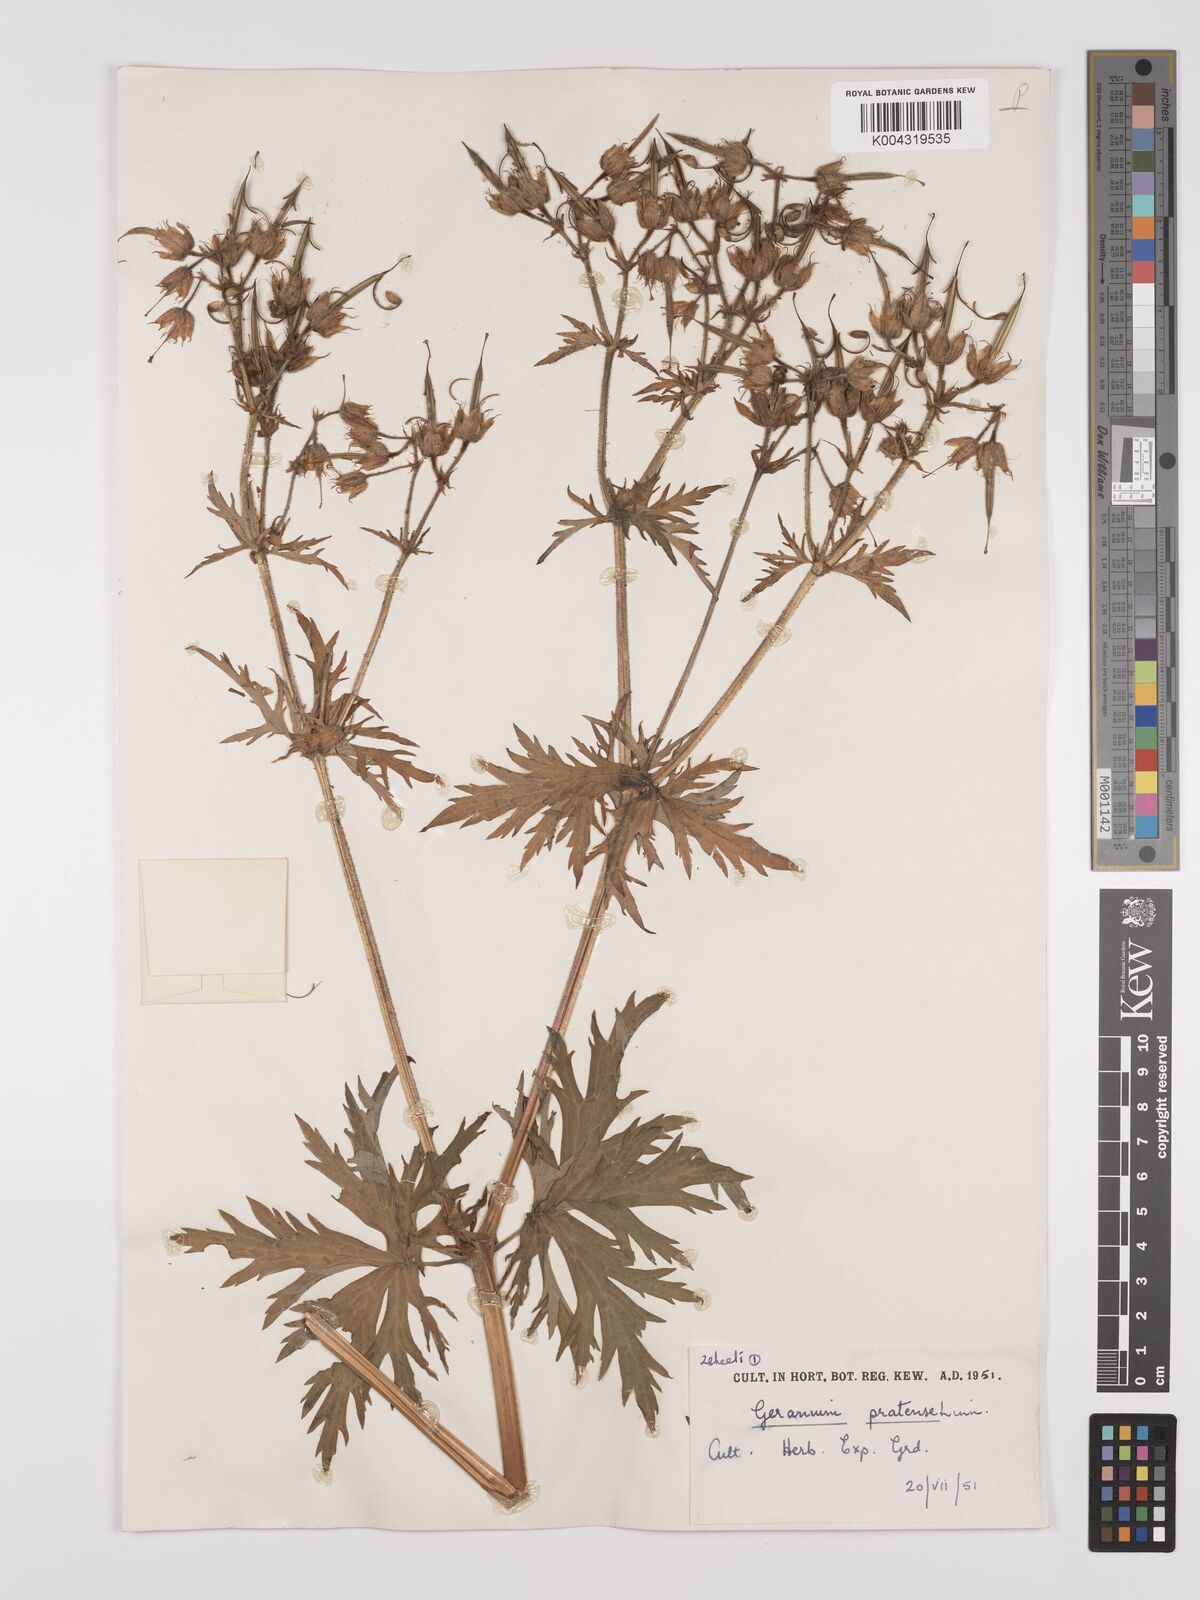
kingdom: Plantae
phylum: Tracheophyta
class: Magnoliopsida
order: Geraniales
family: Geraniaceae
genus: Geranium
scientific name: Geranium pratense
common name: Meadow crane's-bill
